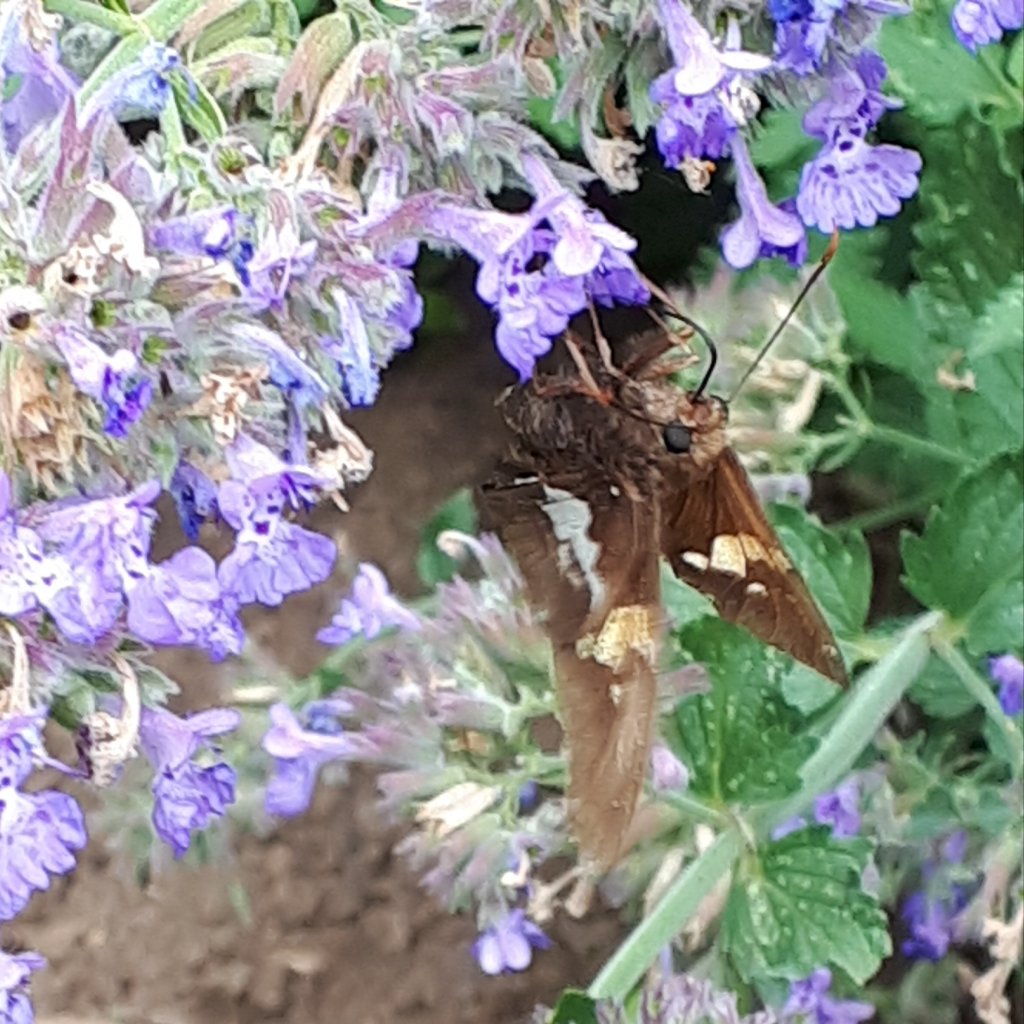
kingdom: Animalia
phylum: Arthropoda
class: Insecta
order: Lepidoptera
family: Hesperiidae
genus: Epargyreus
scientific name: Epargyreus clarus
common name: Silver-spotted Skipper
